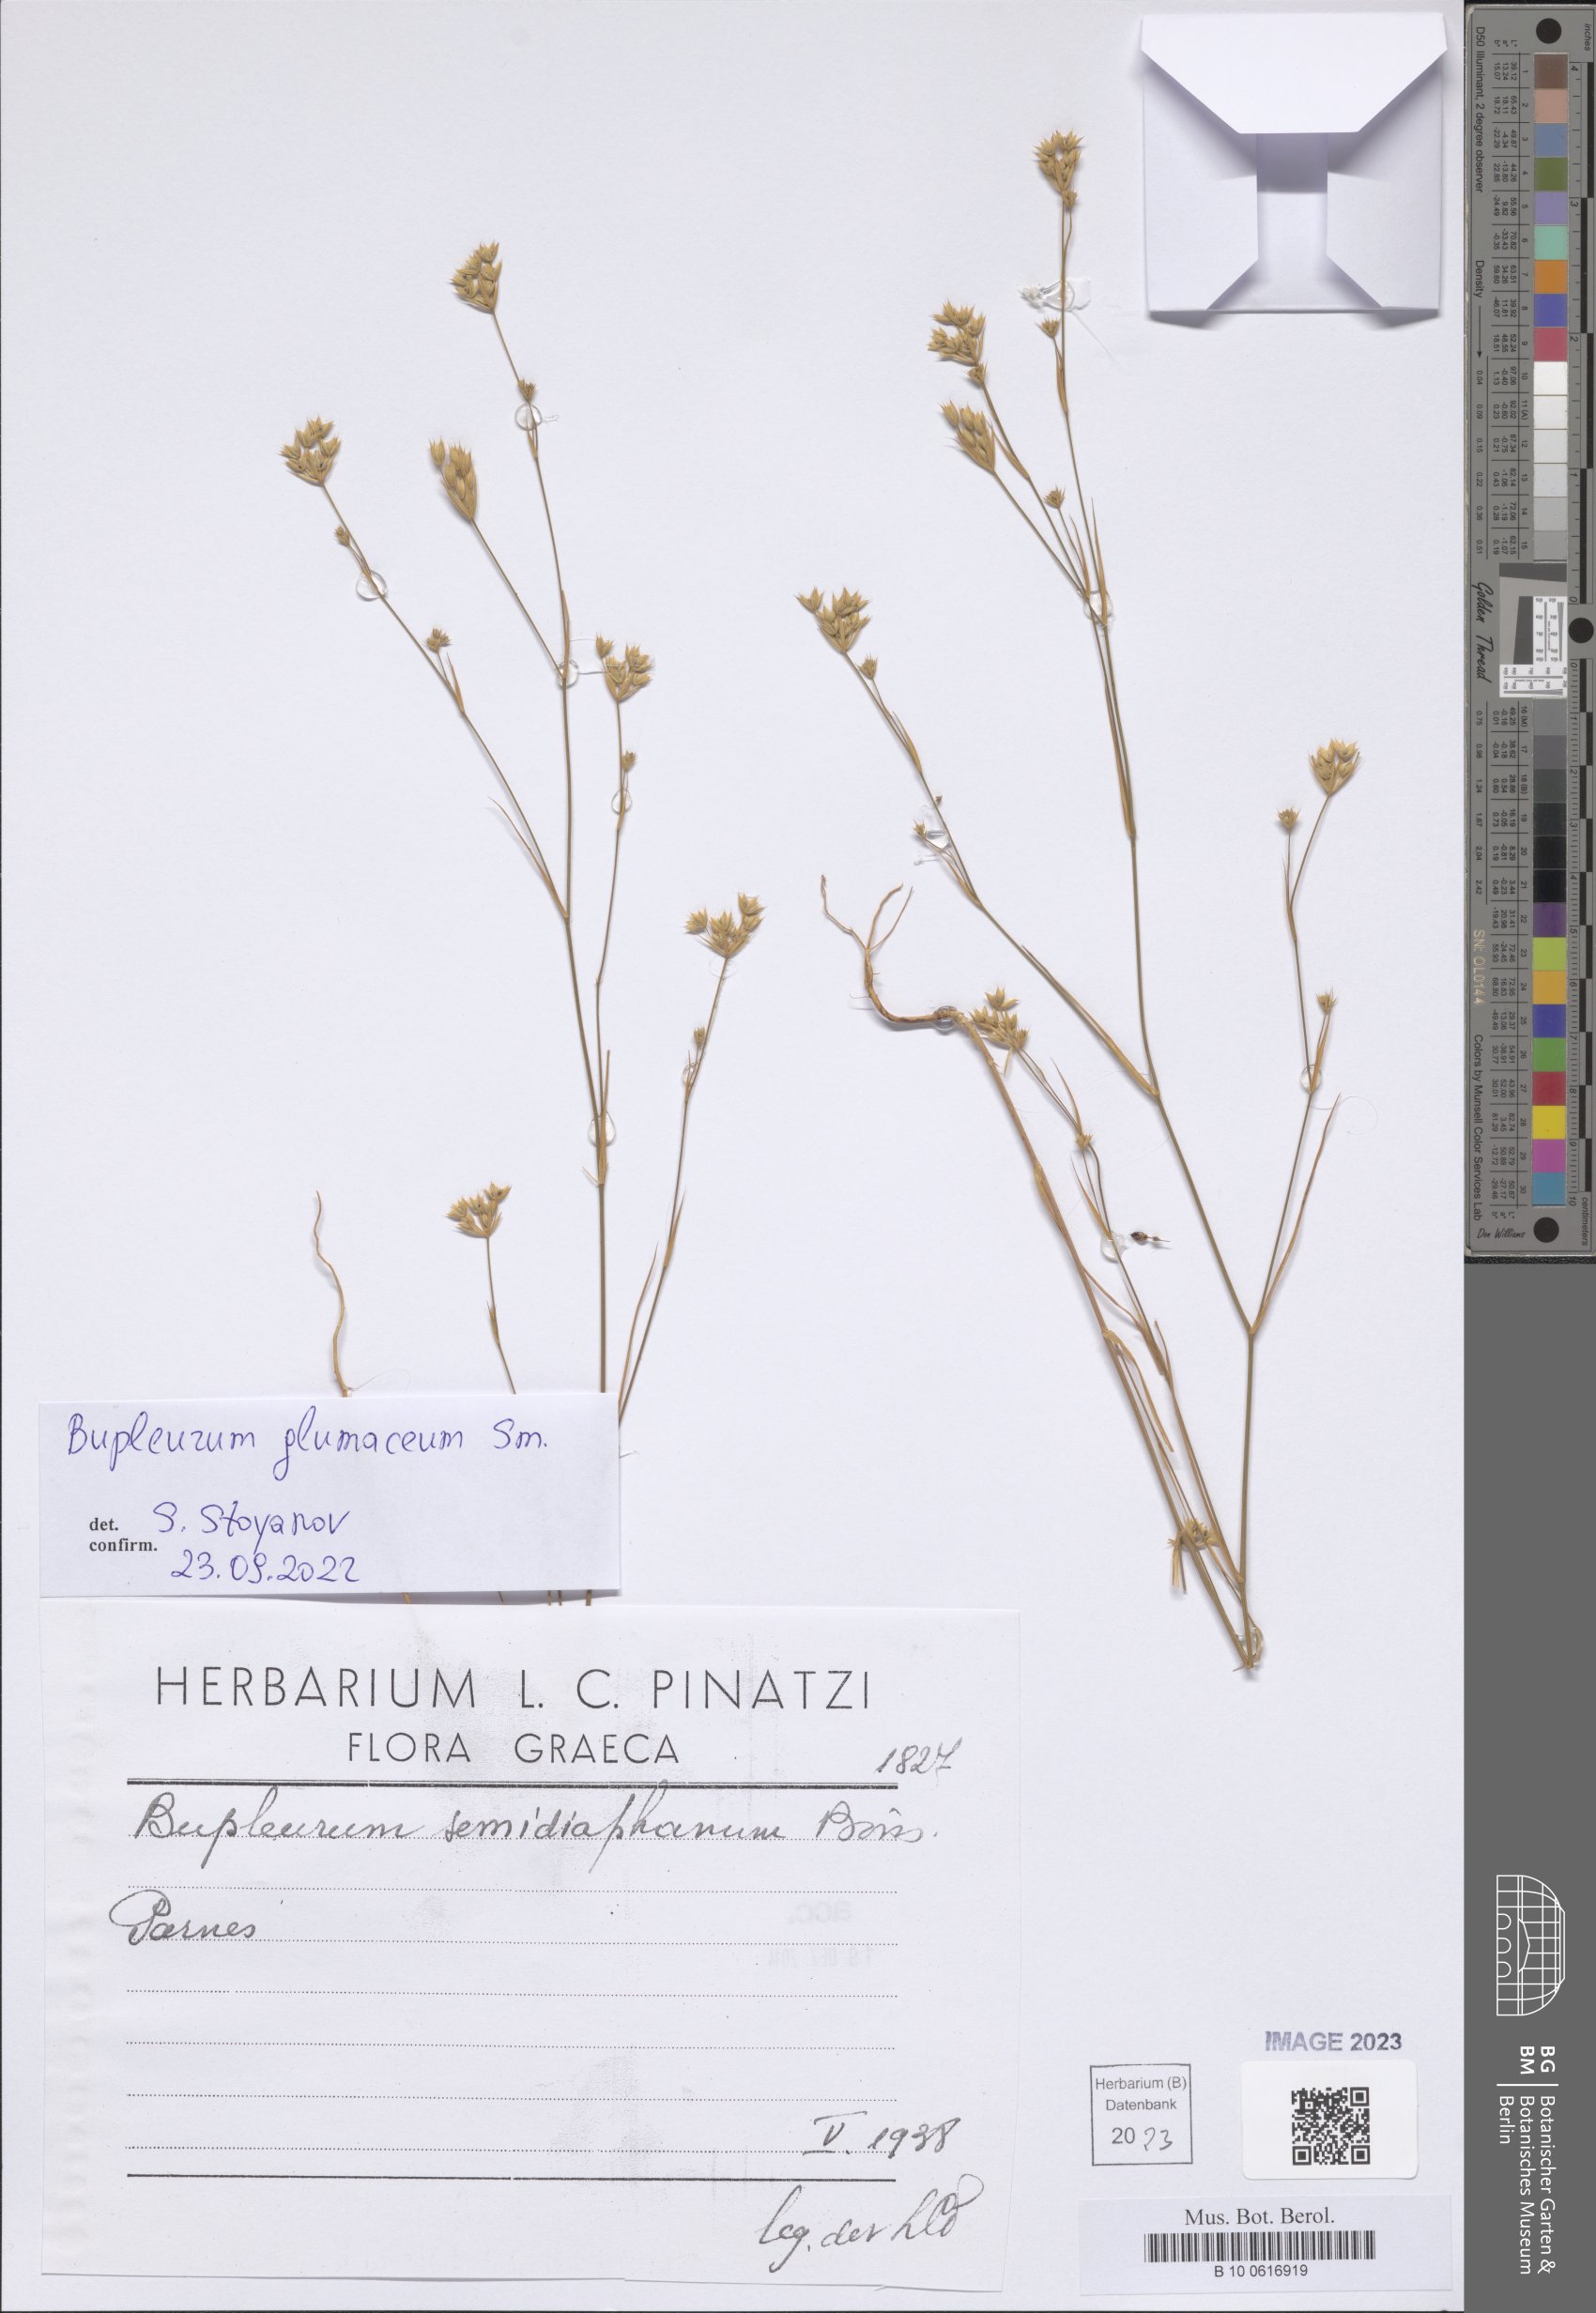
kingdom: Plantae
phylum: Tracheophyta
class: Magnoliopsida
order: Apiales
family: Apiaceae
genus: Bupleurum
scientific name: Bupleurum glumaceum
